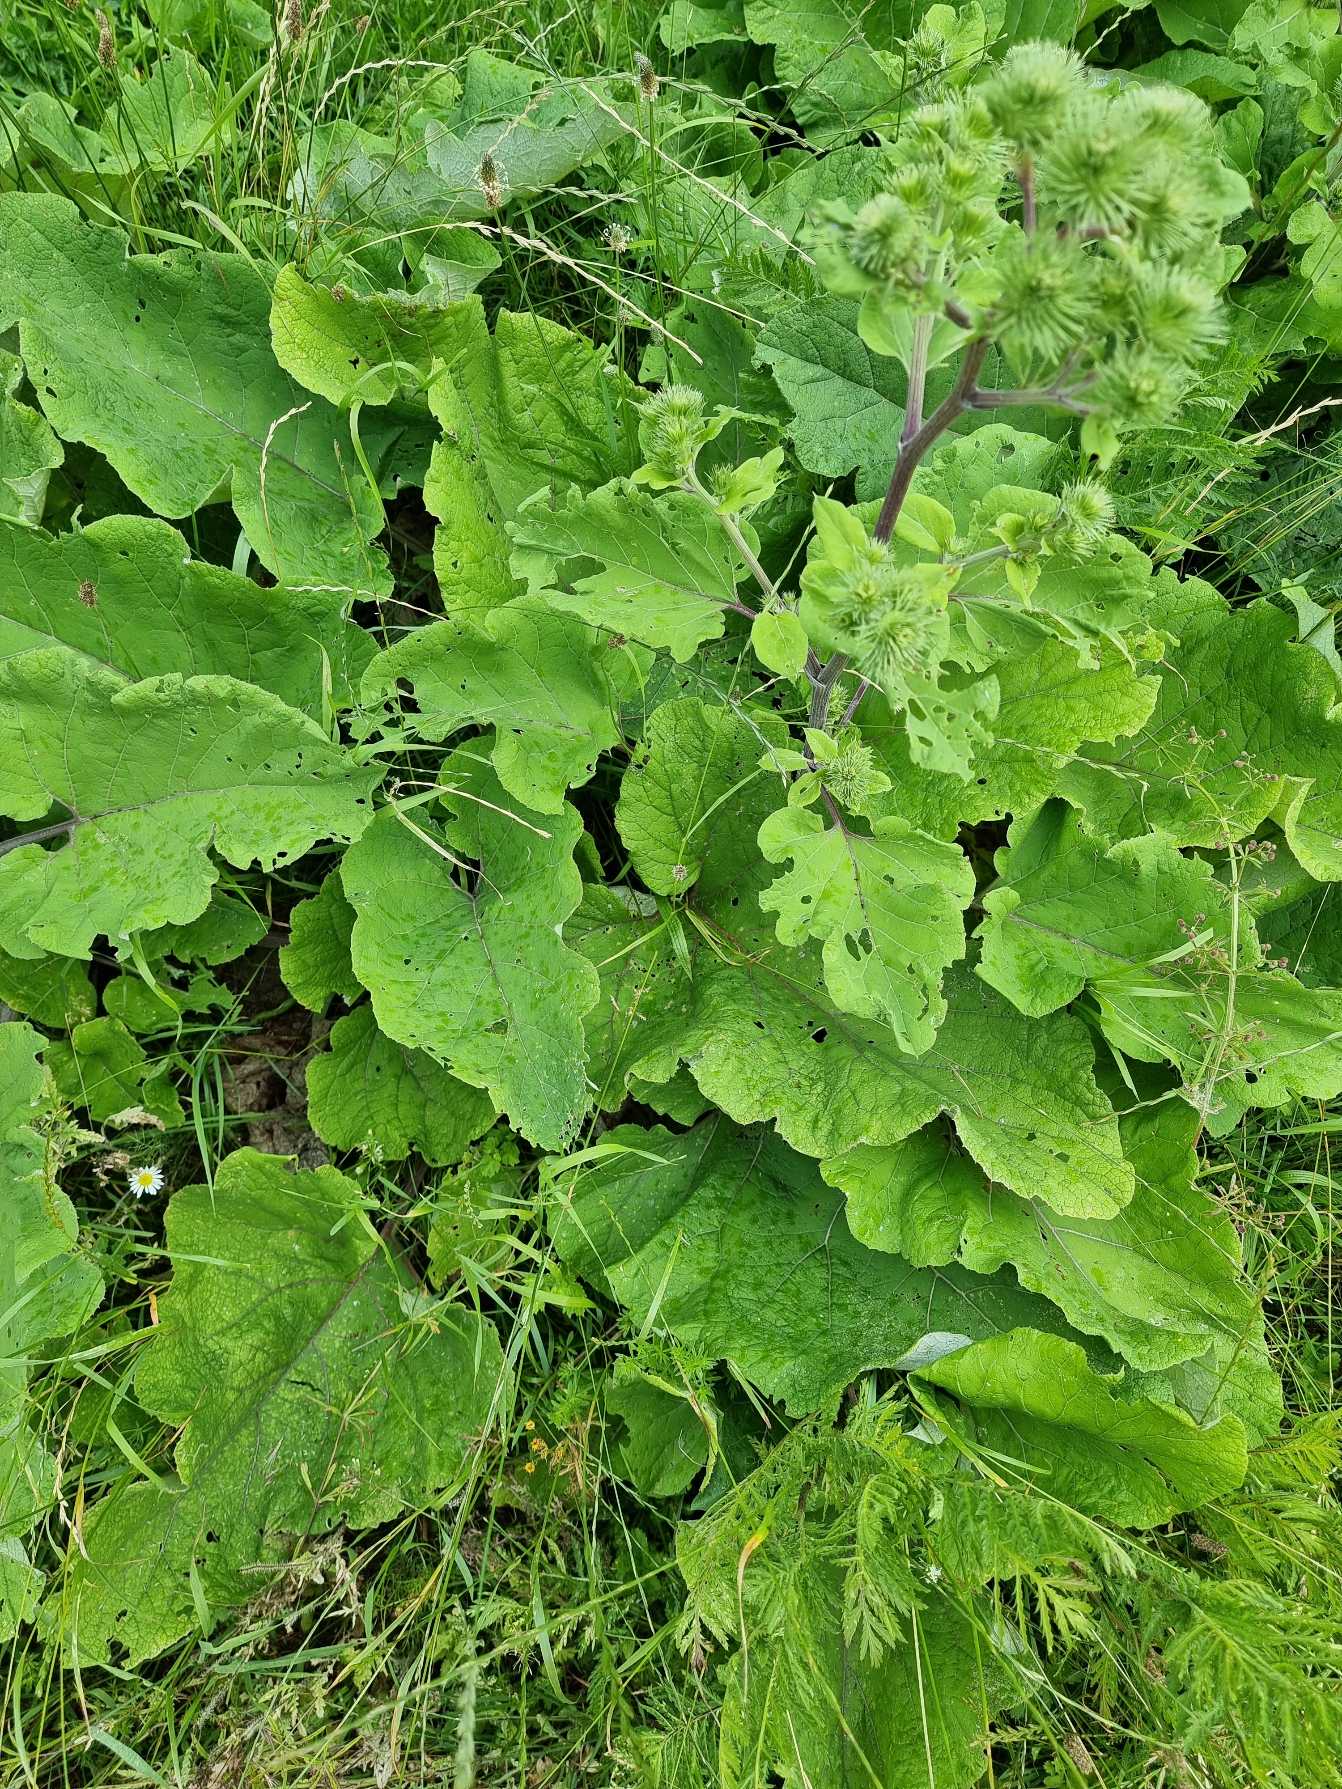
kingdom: Plantae
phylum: Tracheophyta
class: Magnoliopsida
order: Asterales
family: Asteraceae
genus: Arctium
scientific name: Arctium lappa
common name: Glat burre
